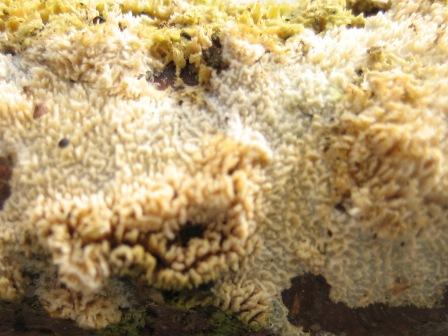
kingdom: Fungi
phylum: Basidiomycota
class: Agaricomycetes
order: Hymenochaetales
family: Schizoporaceae
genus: Schizopora
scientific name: Schizopora paradoxa
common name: hvid tandsvamp
